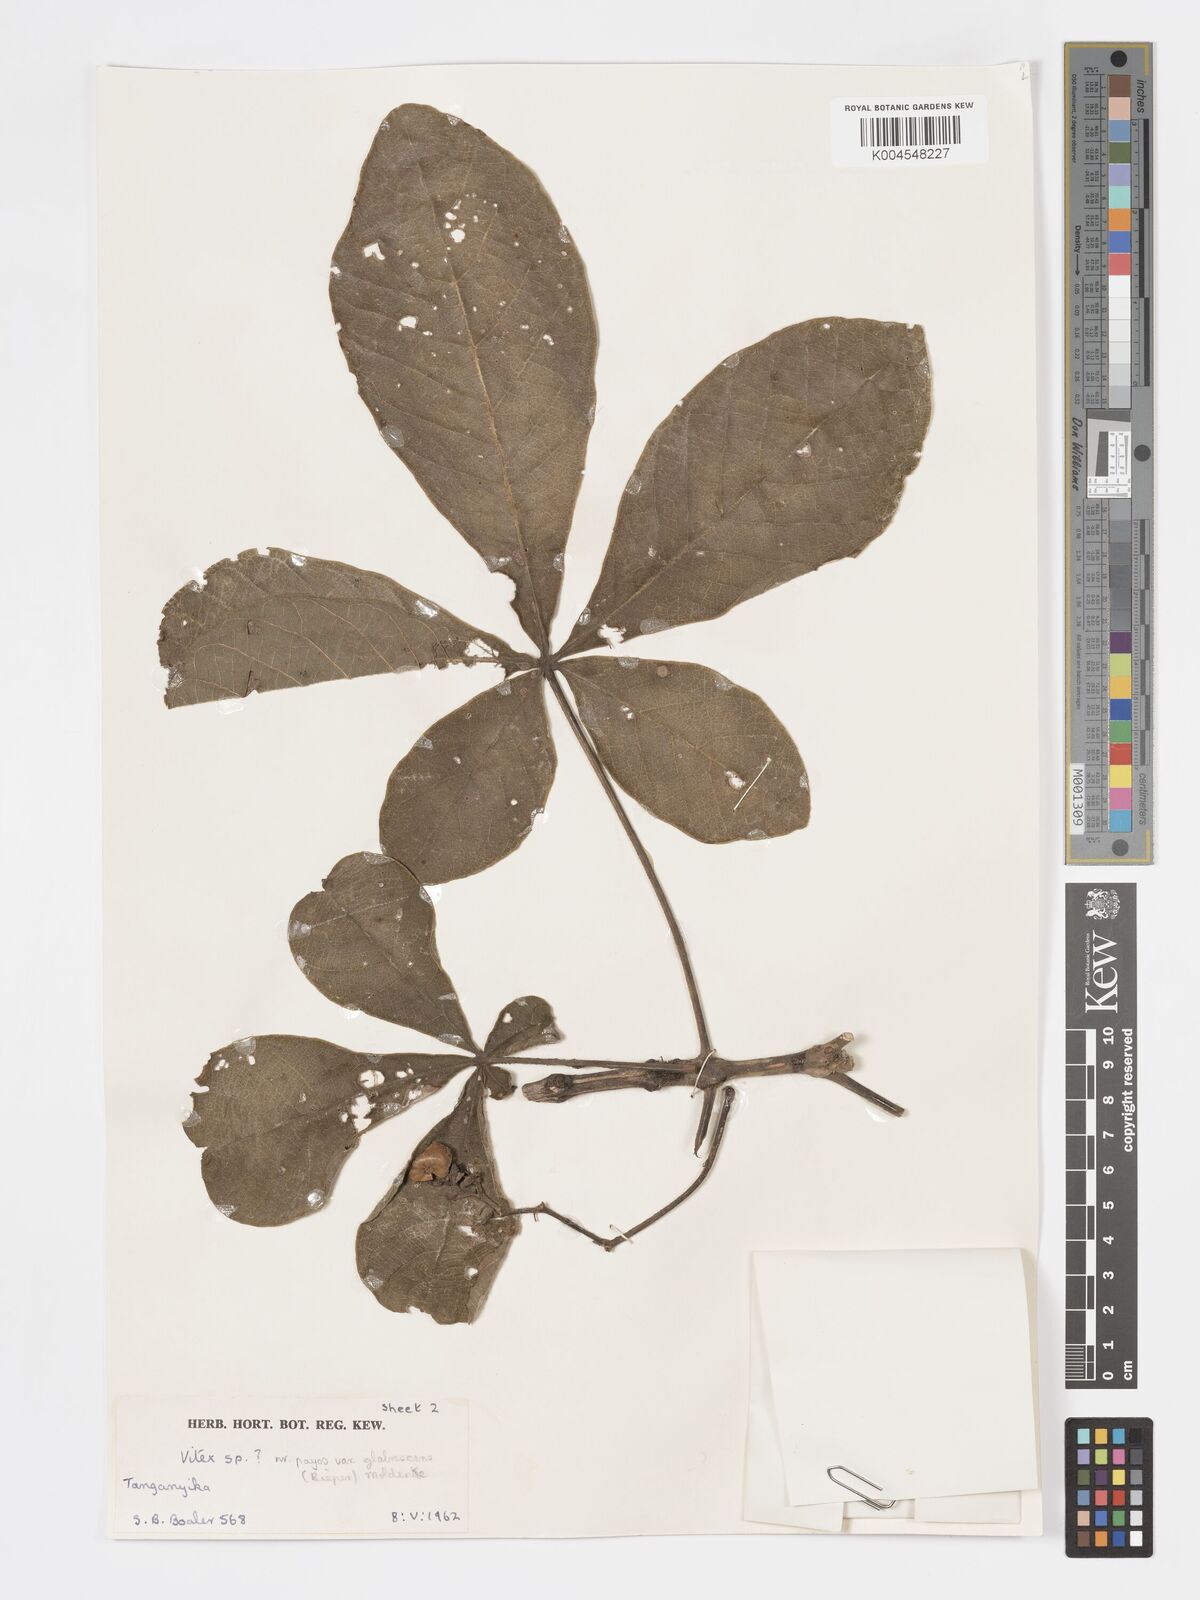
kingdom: Plantae
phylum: Tracheophyta
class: Magnoliopsida
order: Lamiales
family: Lamiaceae
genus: Vitex
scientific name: Vitex payos
